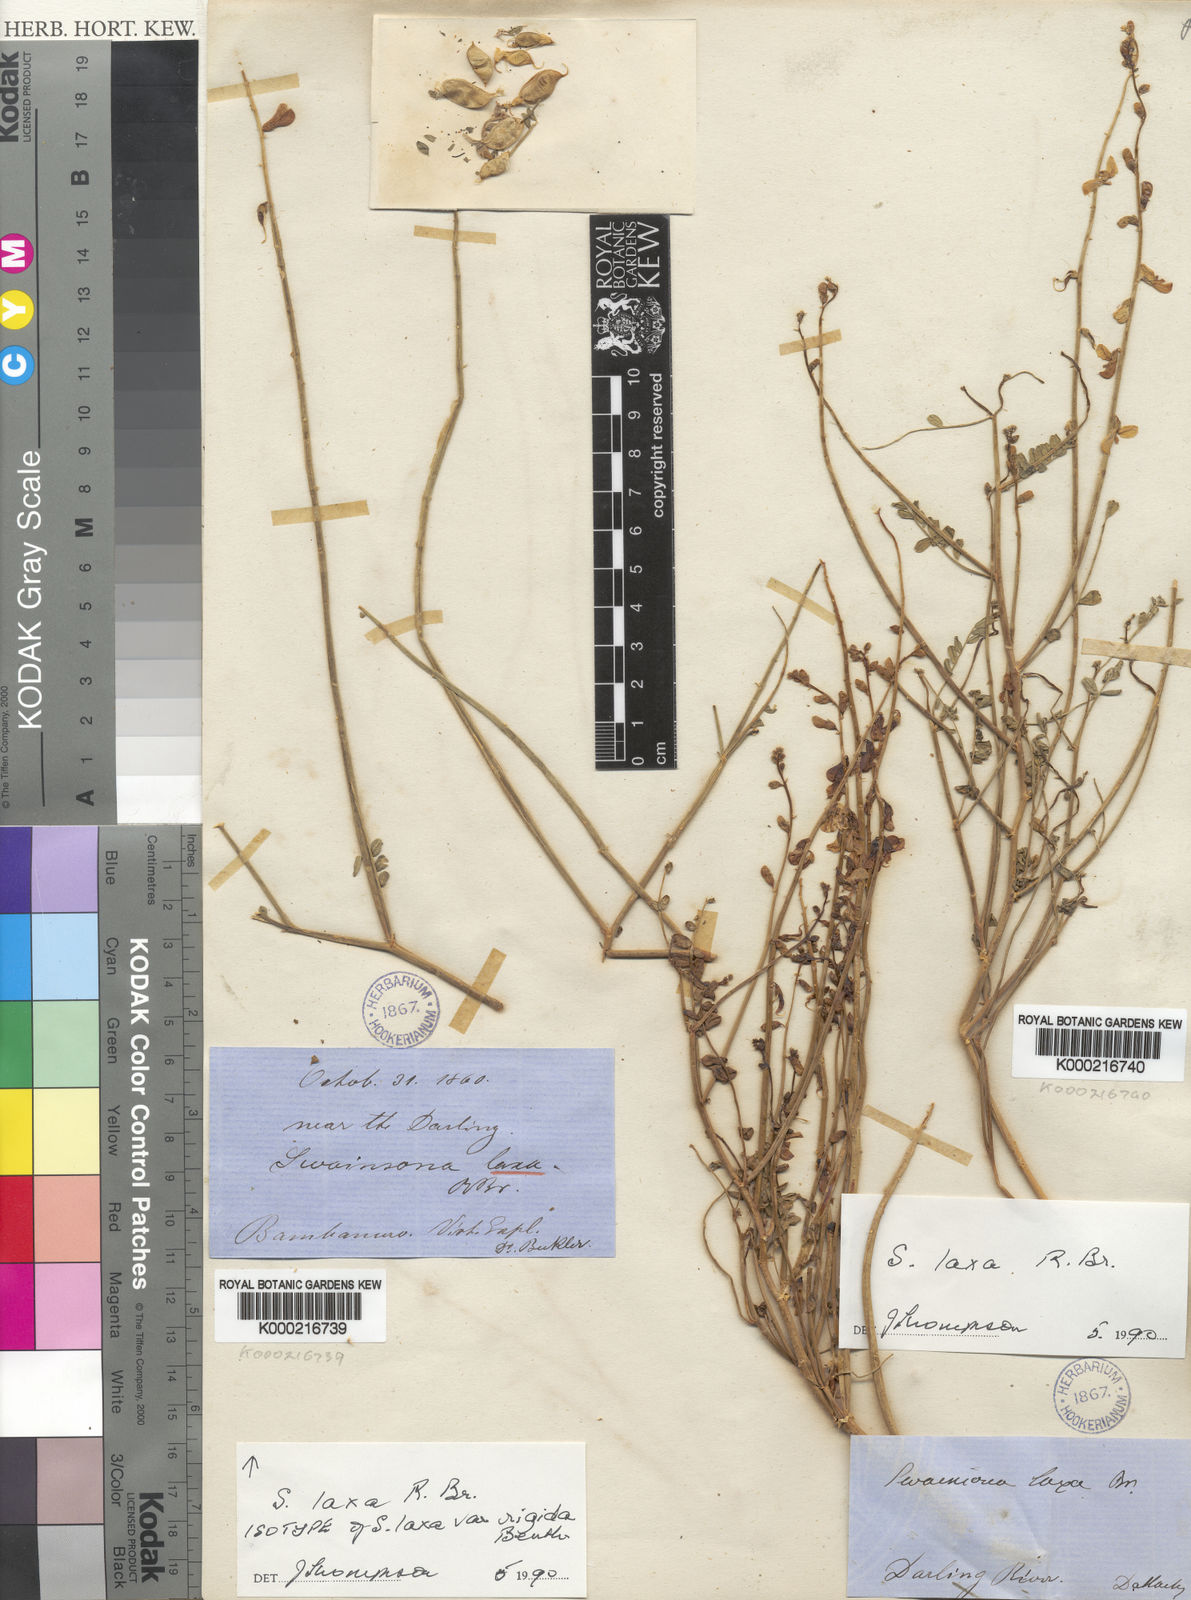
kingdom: Plantae
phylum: Tracheophyta
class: Magnoliopsida
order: Fabales
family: Fabaceae
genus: Swainsona
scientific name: Swainsona laxa
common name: Yellow darling pea
